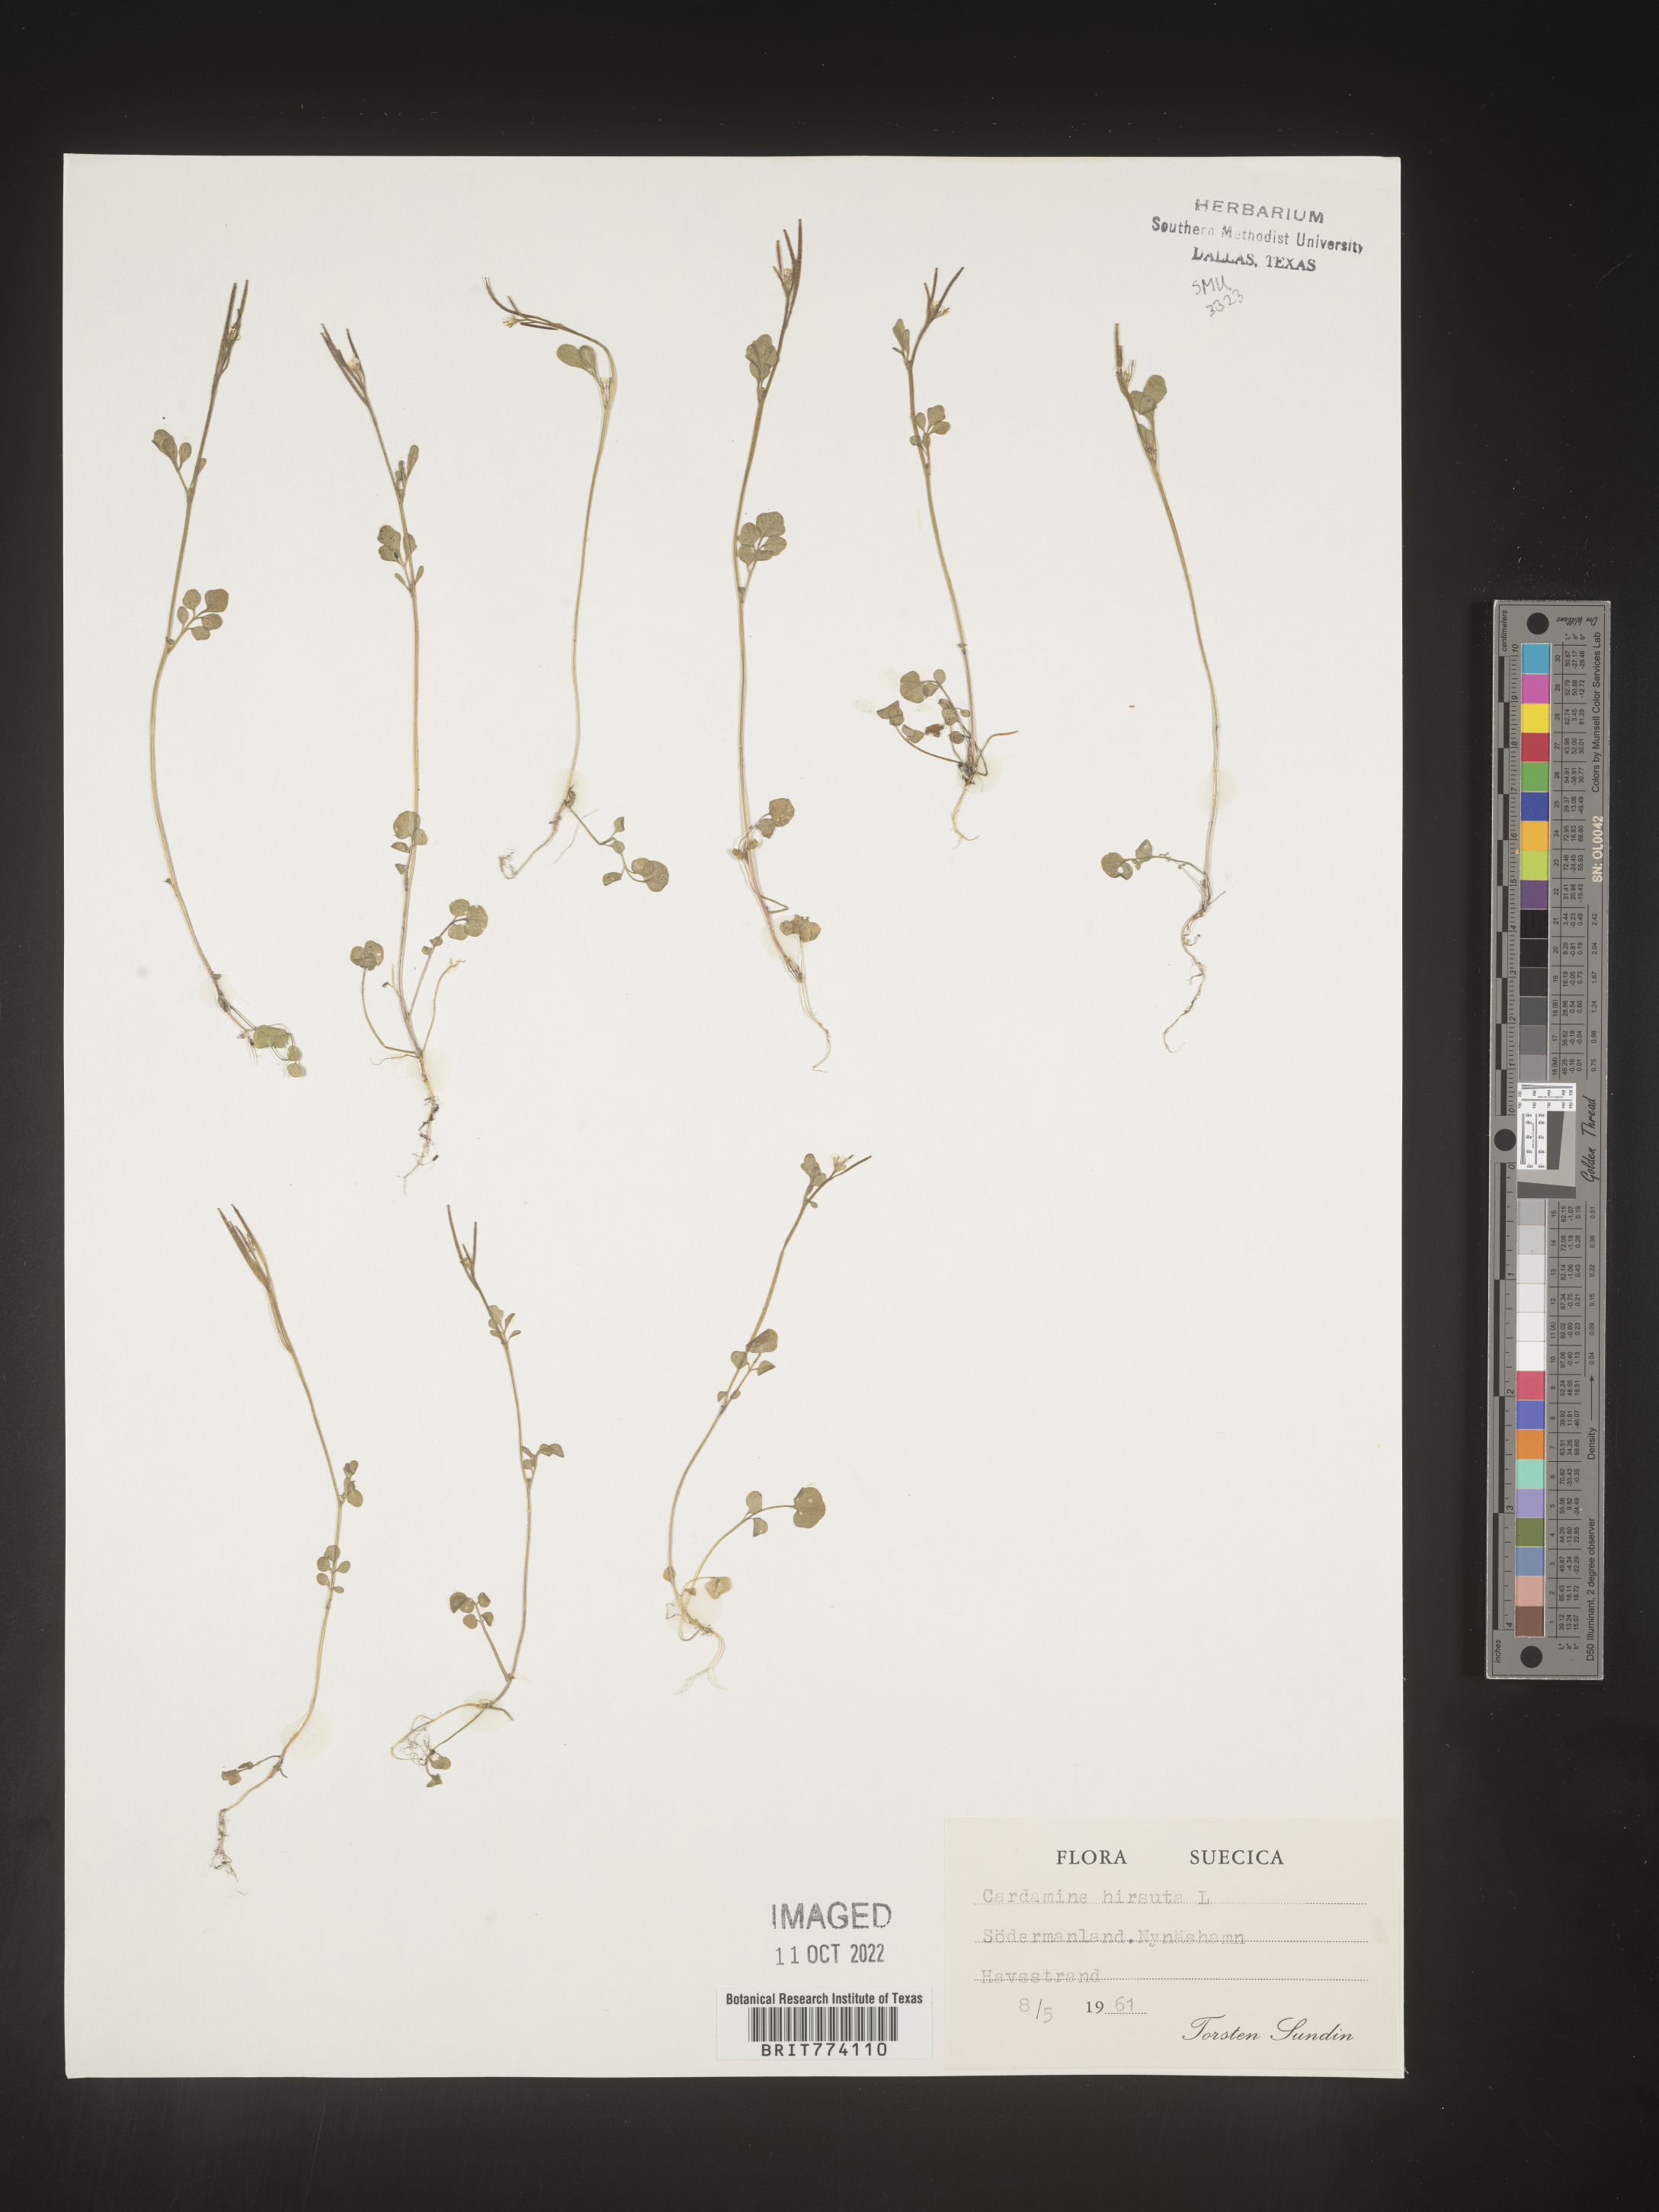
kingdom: Plantae
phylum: Tracheophyta
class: Magnoliopsida
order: Brassicales
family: Brassicaceae
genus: Cardamine
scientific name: Cardamine hirsuta
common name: Hairy bittercress
